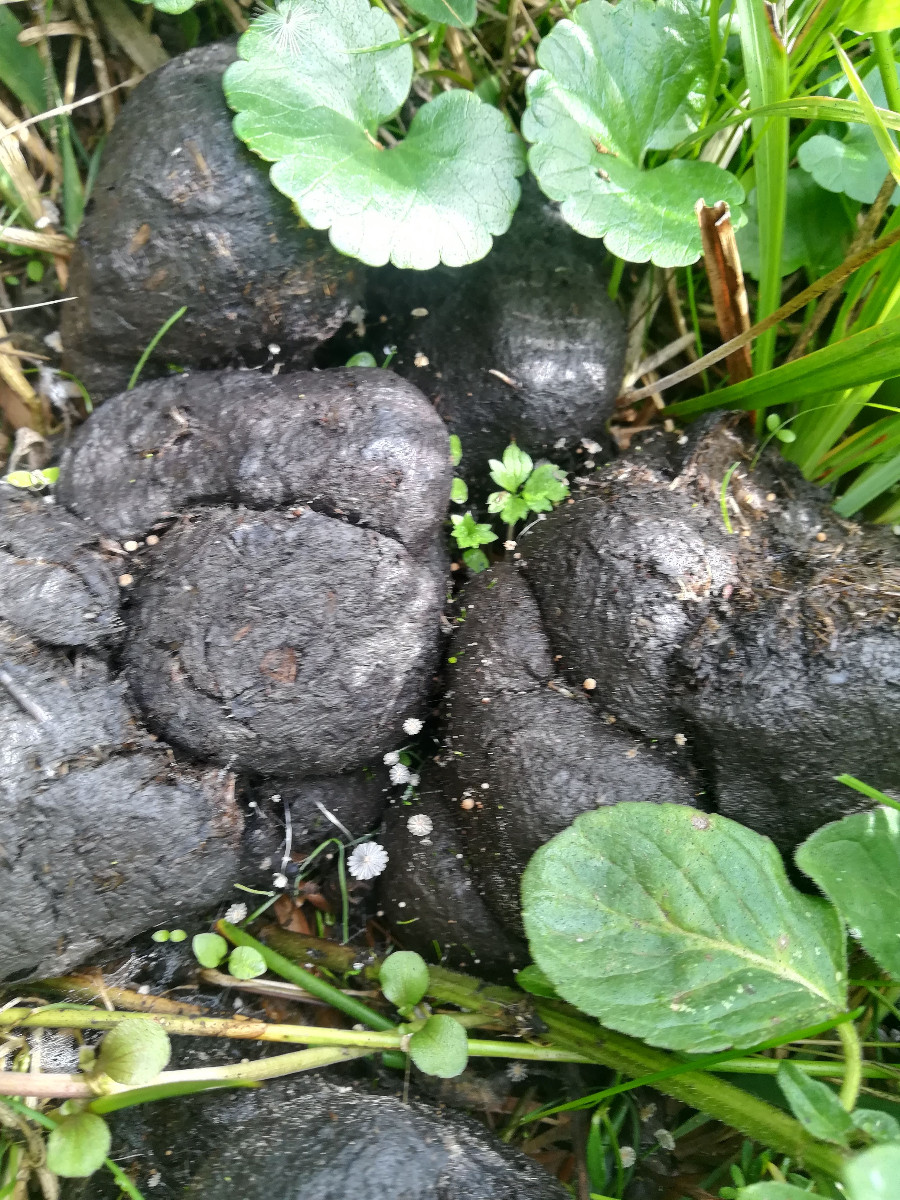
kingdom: Fungi
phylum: Basidiomycota
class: Agaricomycetes
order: Agaricales
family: Psathyrellaceae
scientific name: Psathyrellaceae
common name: mørkhatfamilien
